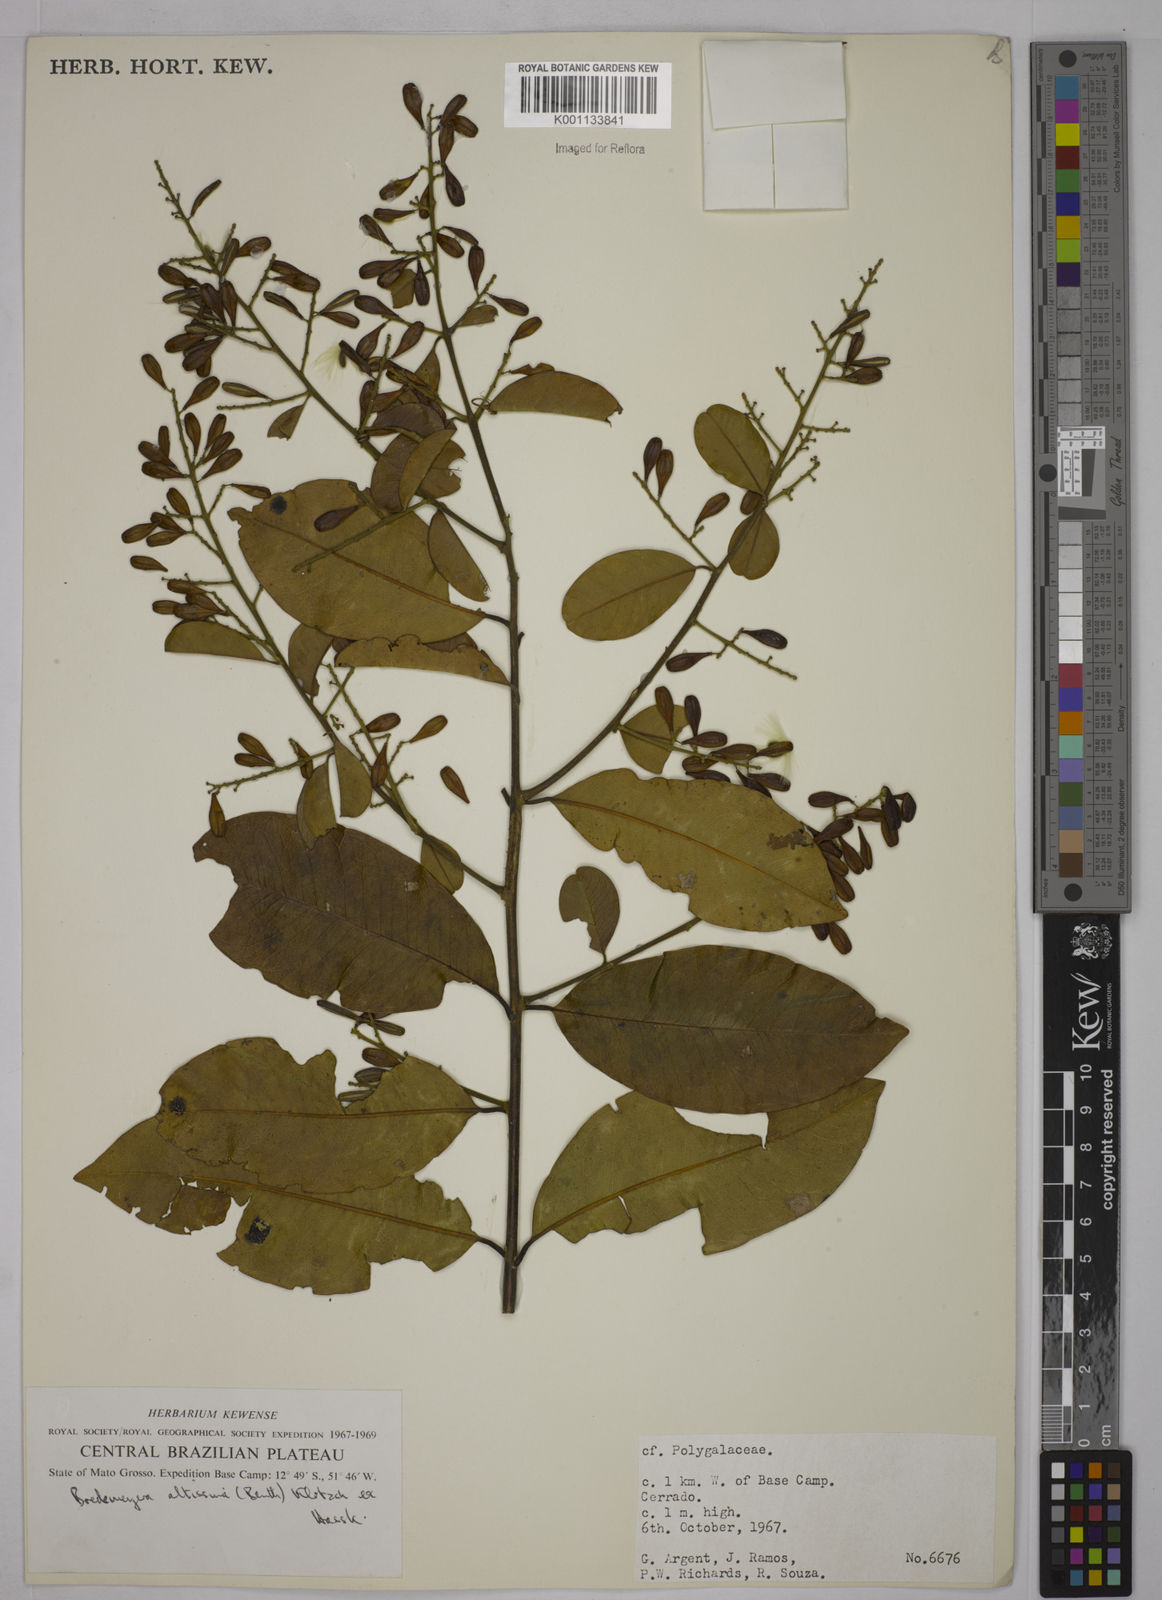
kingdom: Plantae
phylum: Tracheophyta
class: Magnoliopsida
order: Fabales
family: Polygalaceae
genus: Bredemeyera
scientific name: Bredemeyera divaricata
